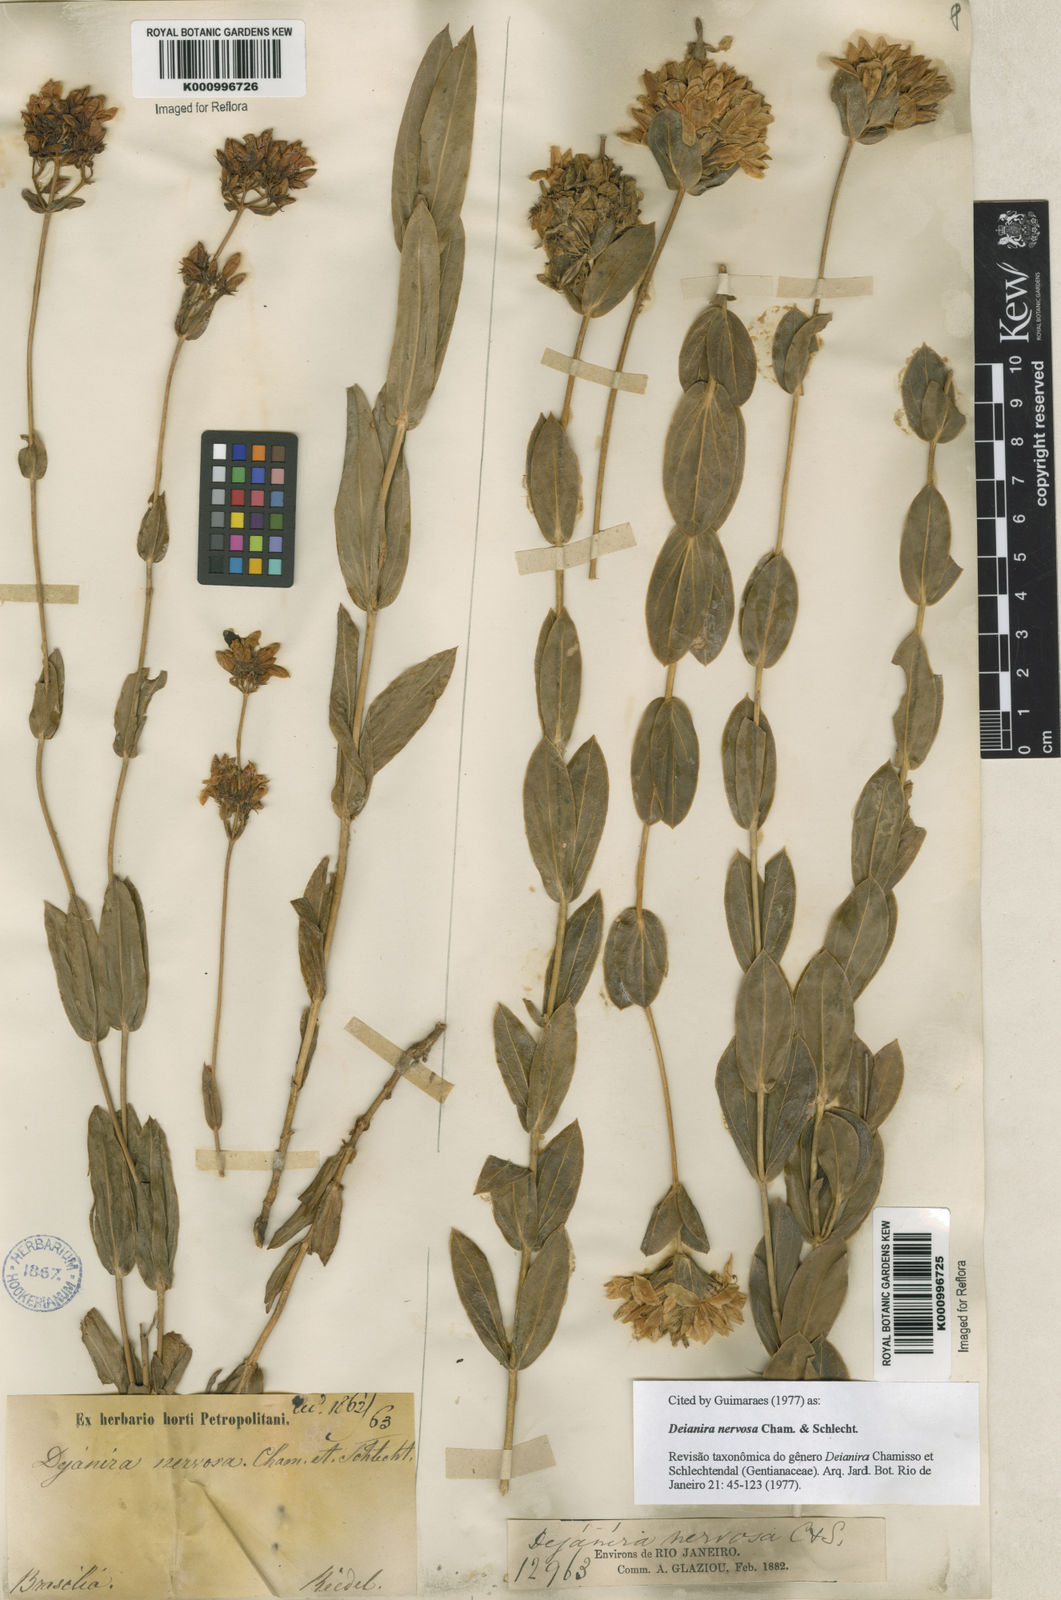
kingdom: Plantae
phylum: Tracheophyta
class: Magnoliopsida
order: Gentianales
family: Gentianaceae
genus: Deianira
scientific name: Deianira nervosa
